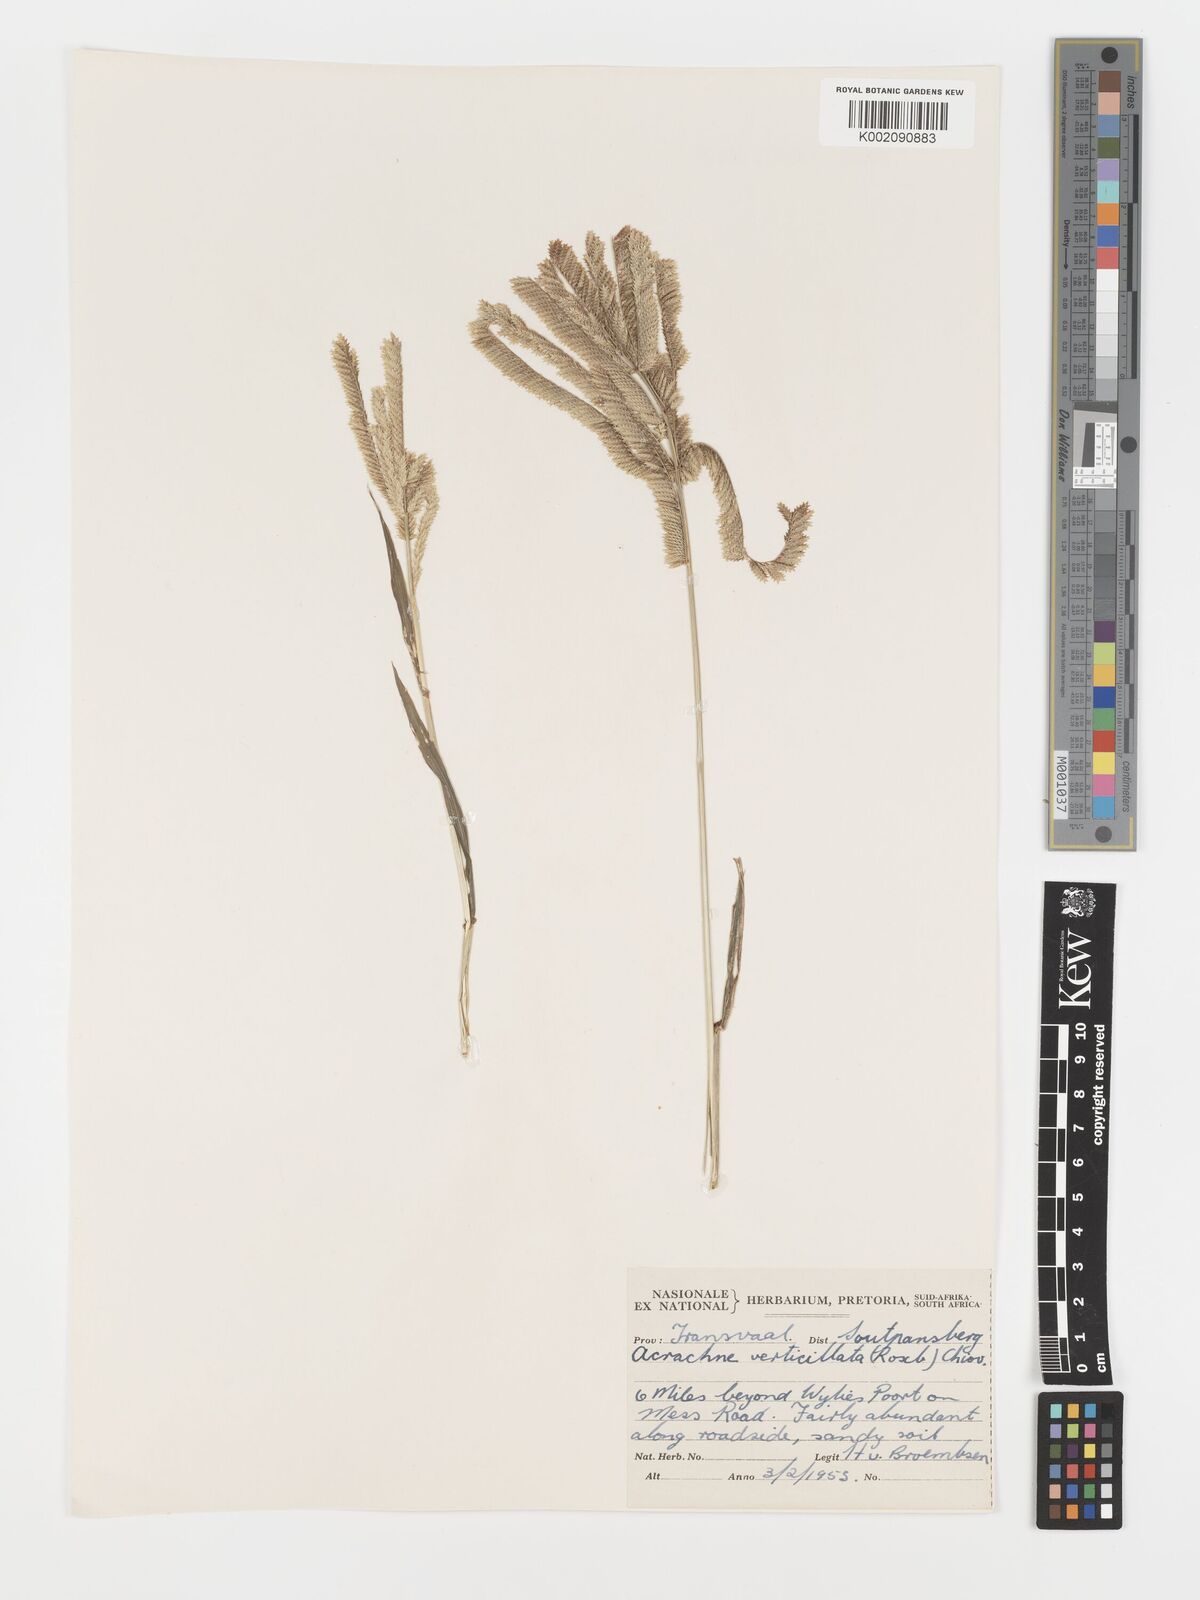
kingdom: Plantae
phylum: Tracheophyta
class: Liliopsida
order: Poales
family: Poaceae
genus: Acrachne
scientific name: Acrachne racemosa
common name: Goosegrass
